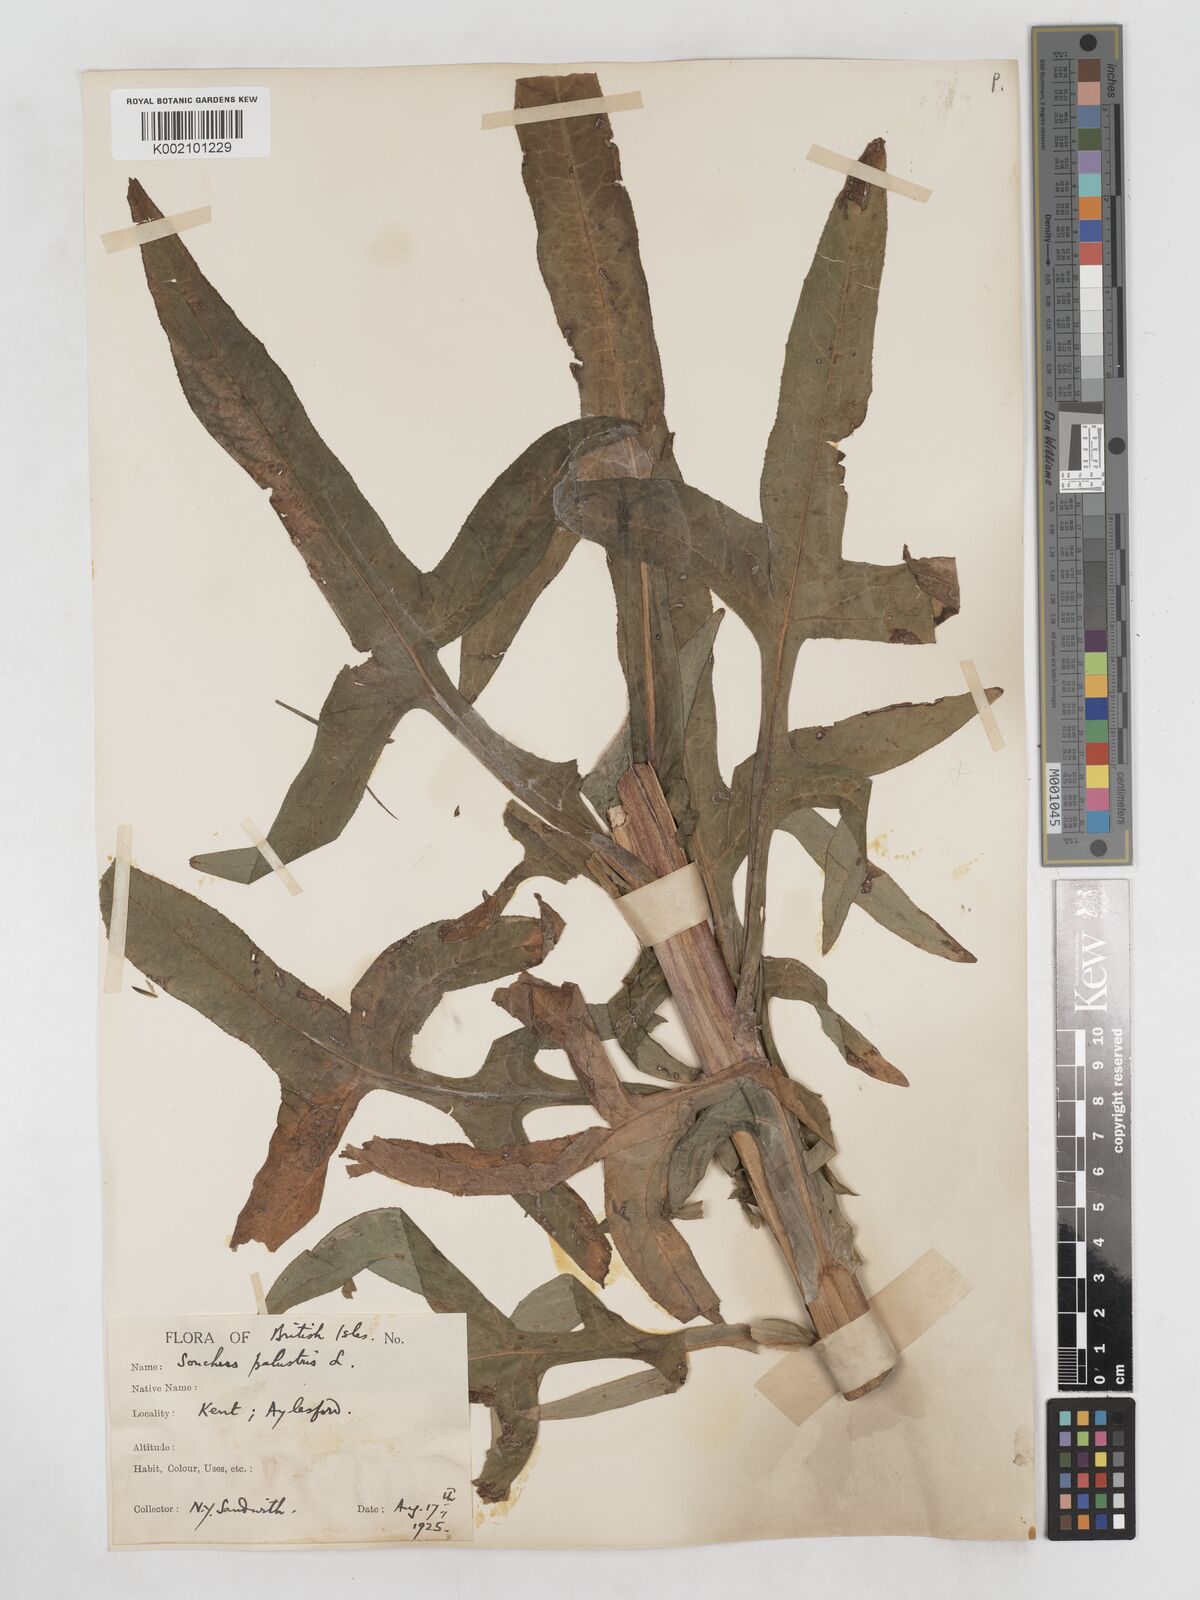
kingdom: Plantae
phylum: Tracheophyta
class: Magnoliopsida
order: Asterales
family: Asteraceae
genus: Sonchus
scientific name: Sonchus palustris
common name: Marsh sow-thistle
